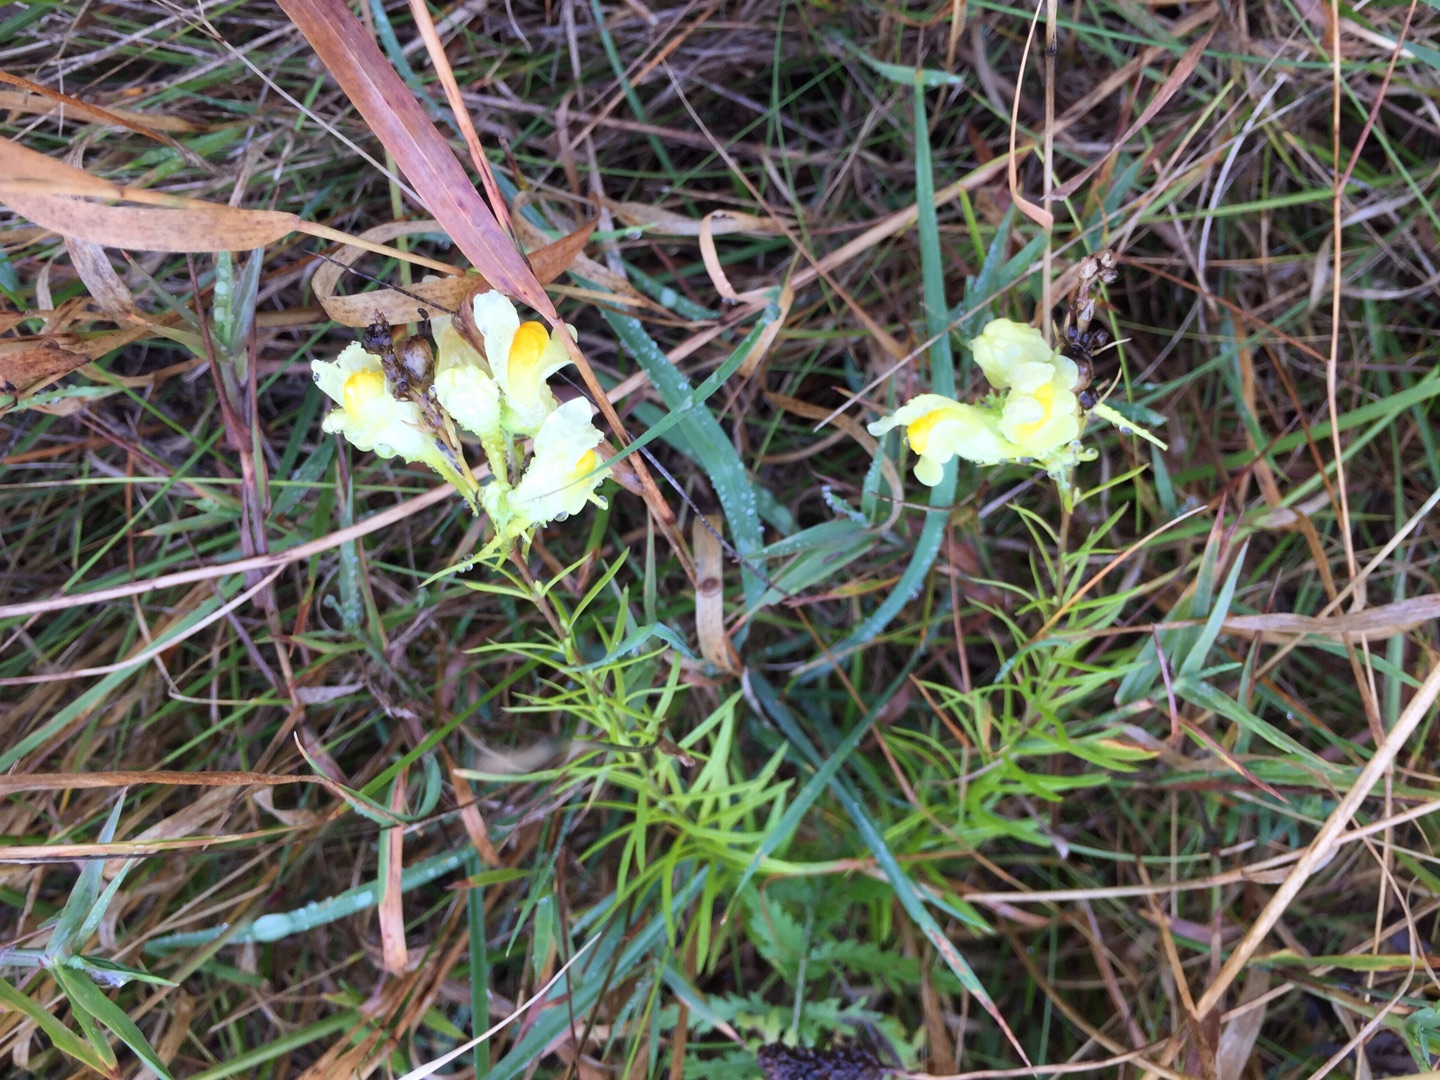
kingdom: Plantae
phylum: Tracheophyta
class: Magnoliopsida
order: Lamiales
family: Plantaginaceae
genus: Linaria
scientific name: Linaria vulgaris
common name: Almindelig torskemund
